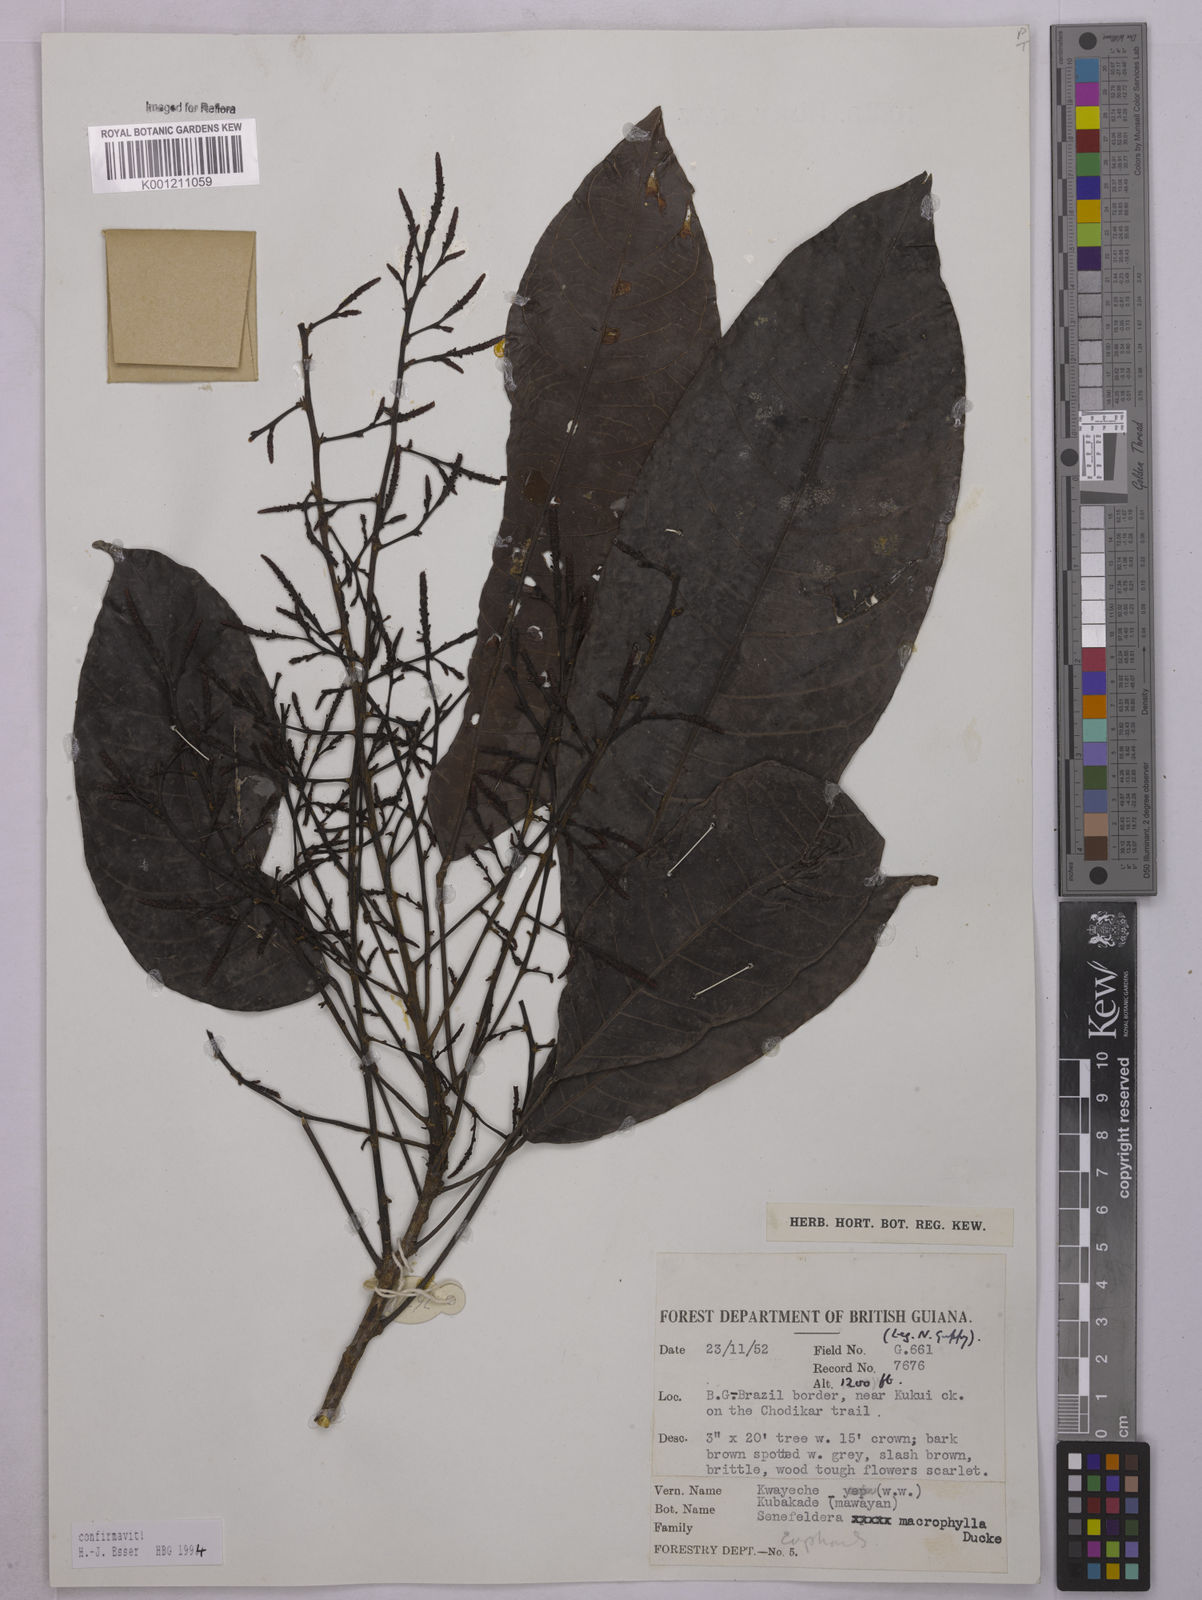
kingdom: Plantae
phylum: Tracheophyta
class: Magnoliopsida
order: Malpighiales
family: Euphorbiaceae
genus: Rhodothyrsus
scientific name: Rhodothyrsus macrophyllus
